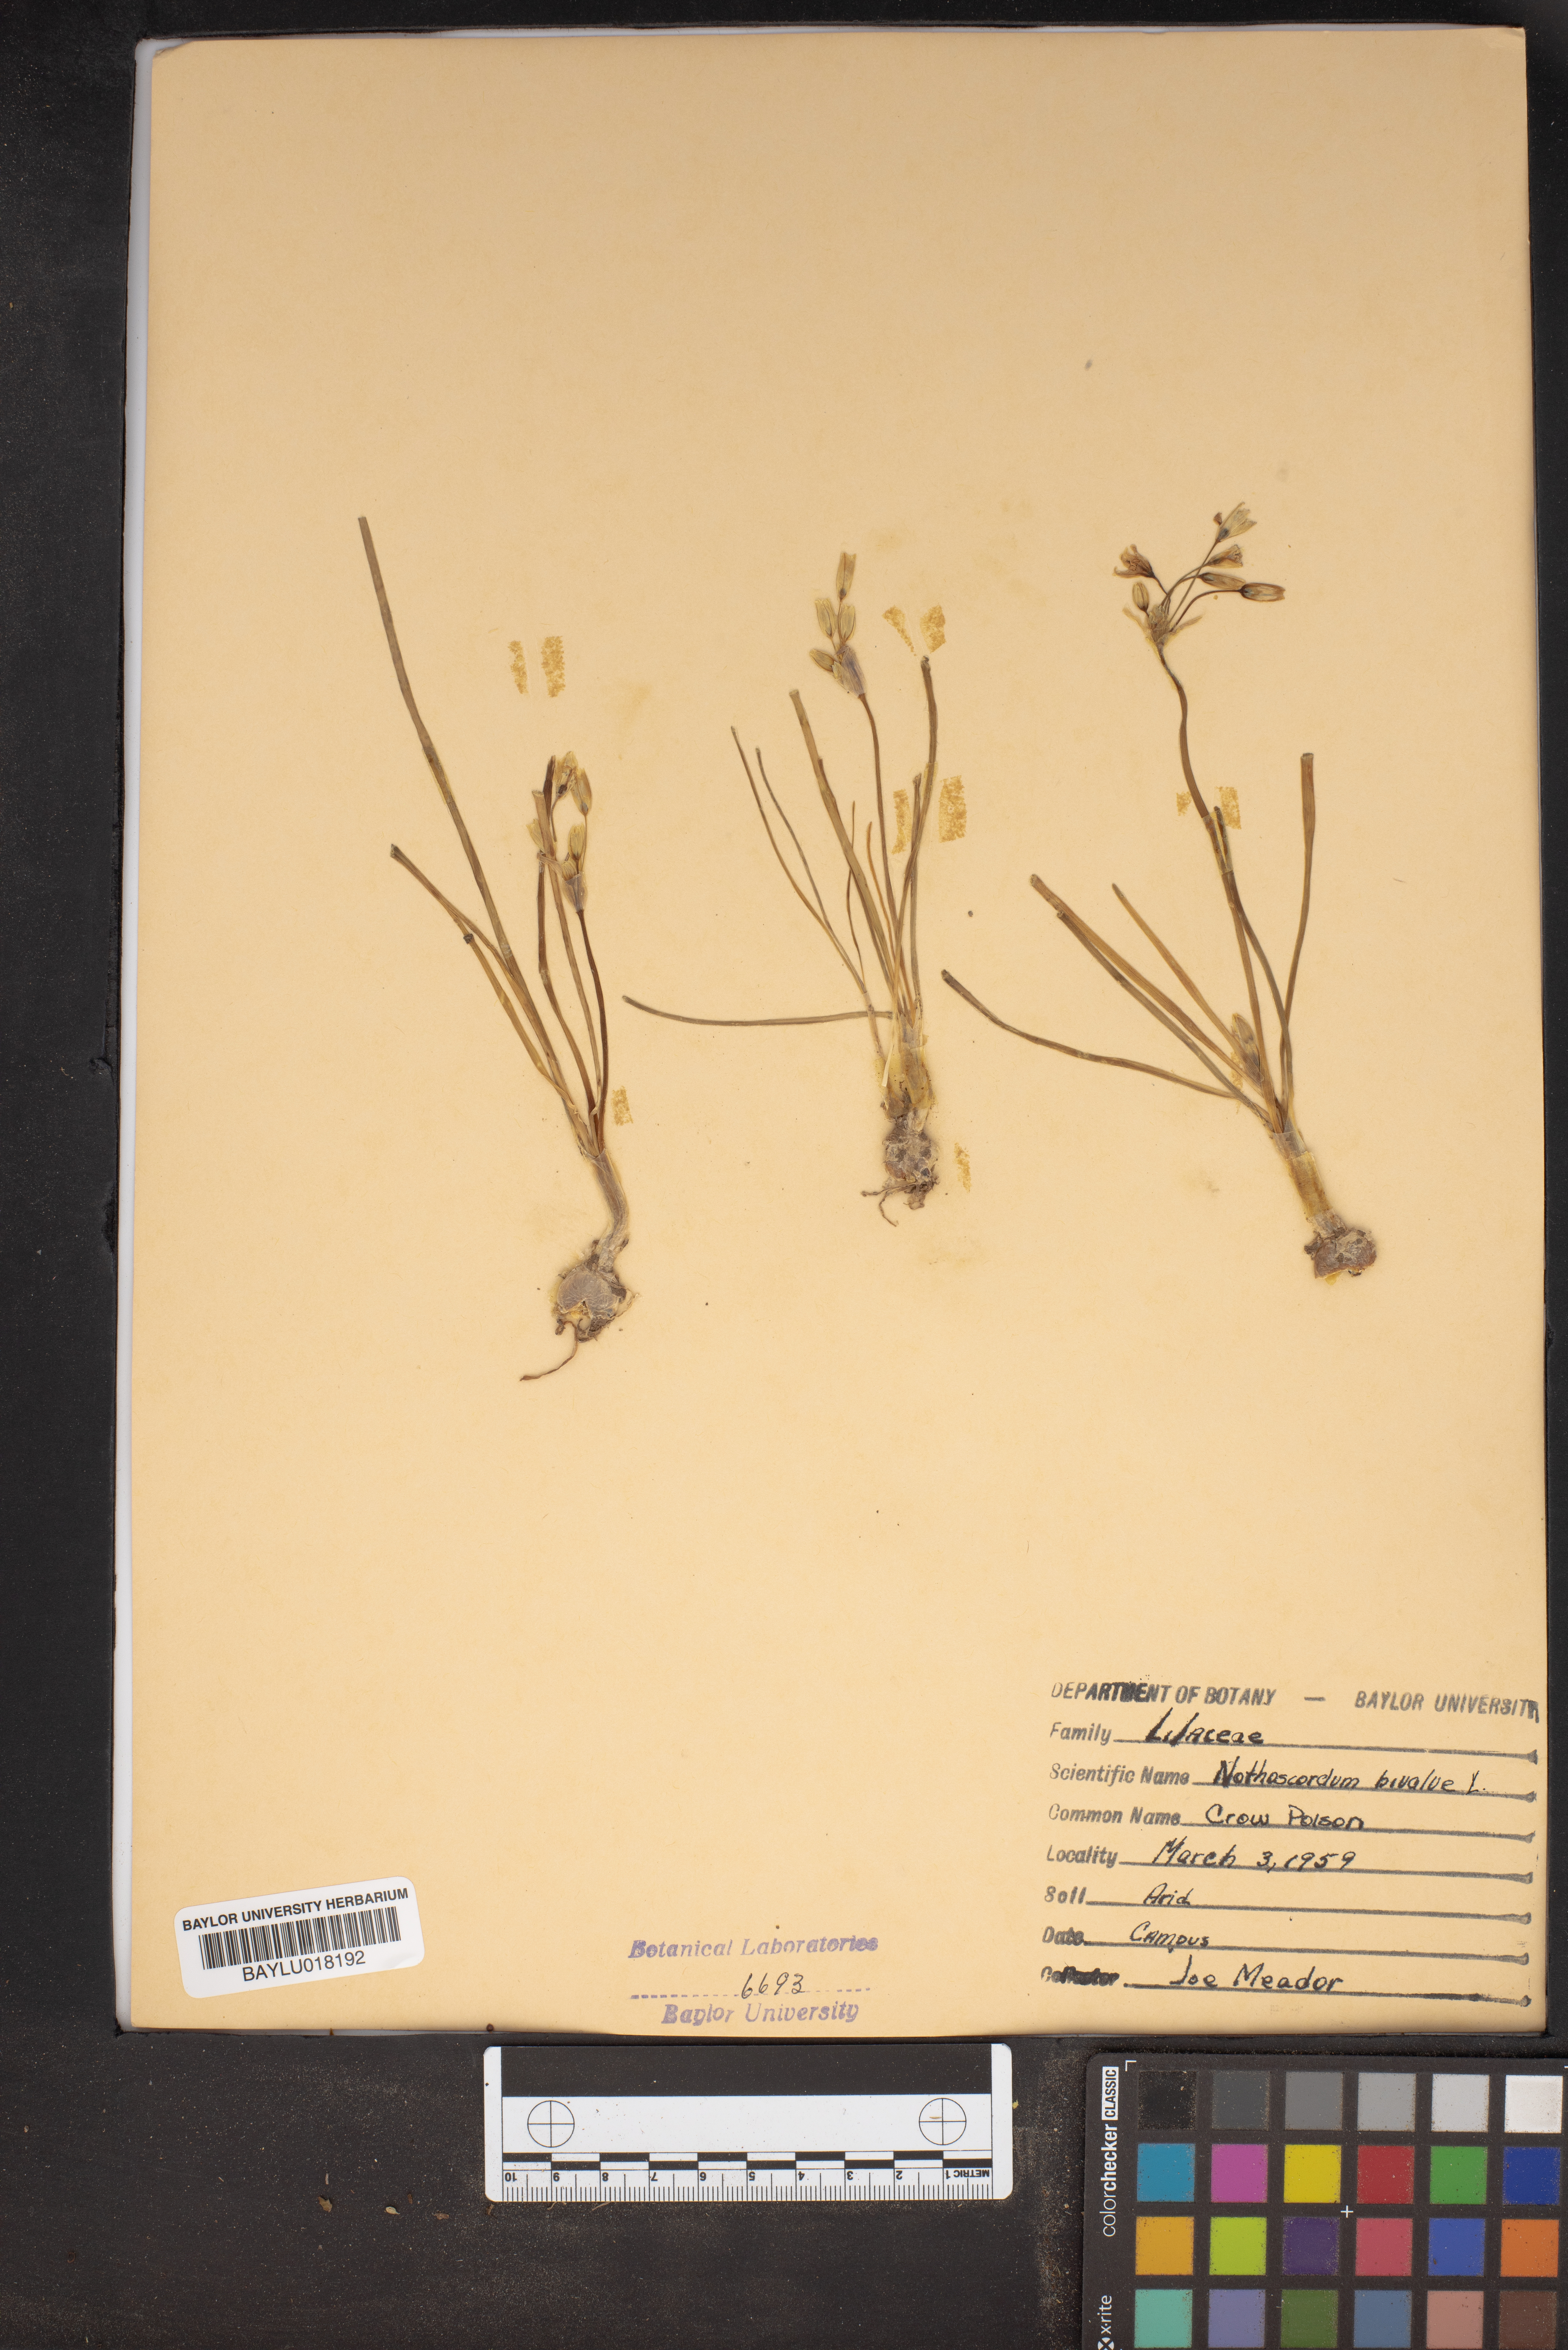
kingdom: Plantae
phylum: Tracheophyta
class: Liliopsida
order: Asparagales
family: Amaryllidaceae
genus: Nothoscordum
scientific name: Nothoscordum bivalve
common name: Crow-poison
